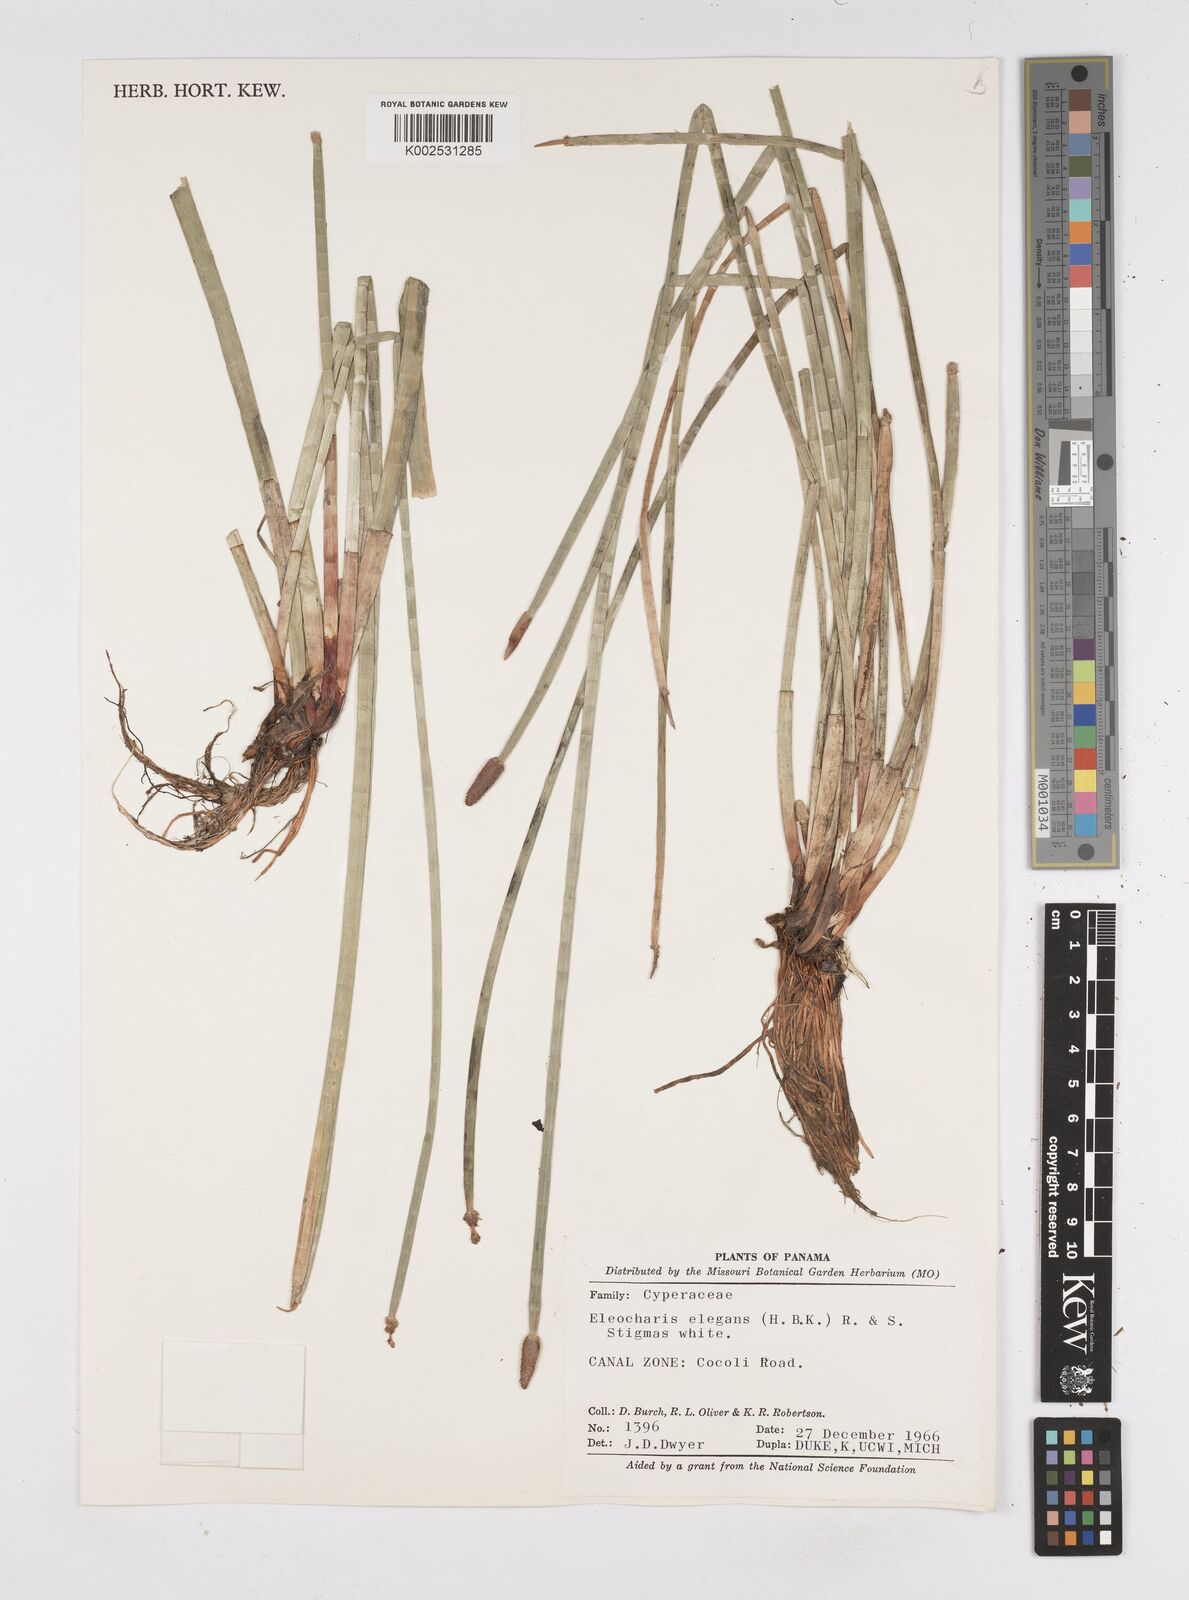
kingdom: Plantae
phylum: Tracheophyta
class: Liliopsida
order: Poales
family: Cyperaceae
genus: Eleocharis
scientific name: Eleocharis elegans
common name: Elegant spike-rush
